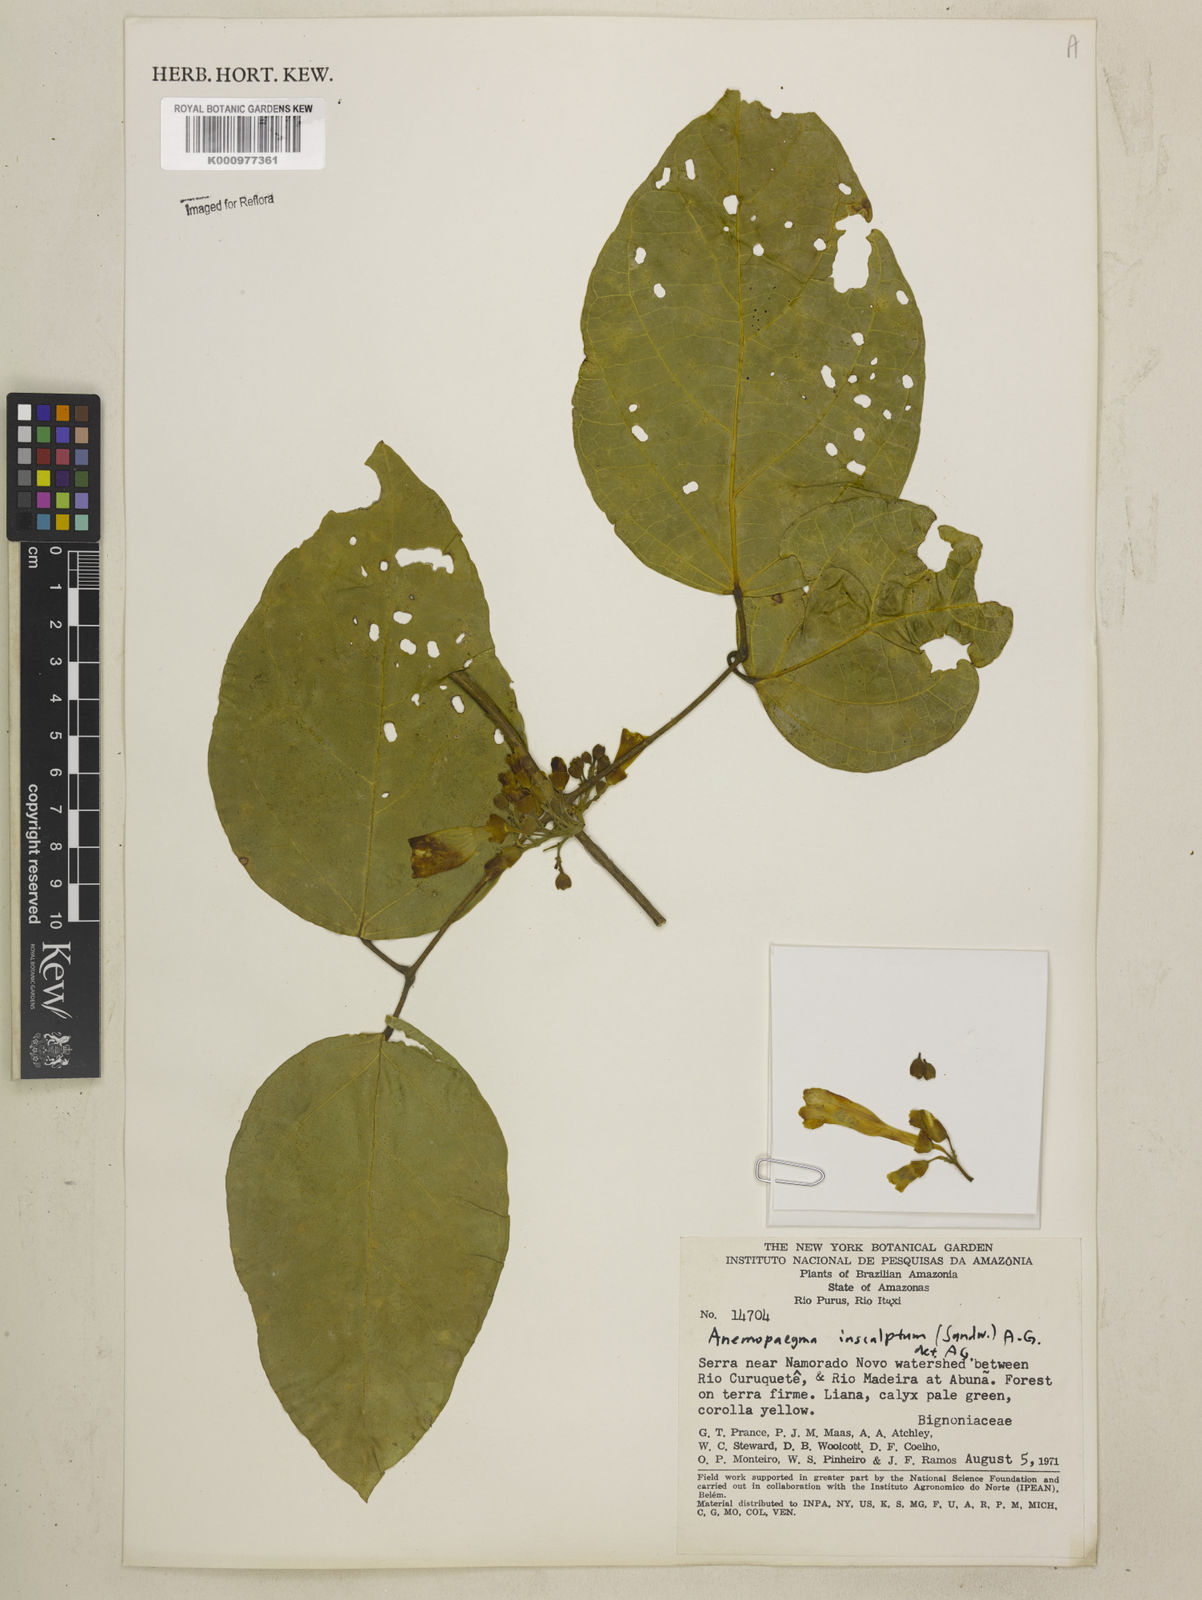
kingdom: Plantae
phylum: Tracheophyta
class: Magnoliopsida
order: Lamiales
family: Bignoniaceae
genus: Anemopaegma
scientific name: Anemopaegma insculptum
